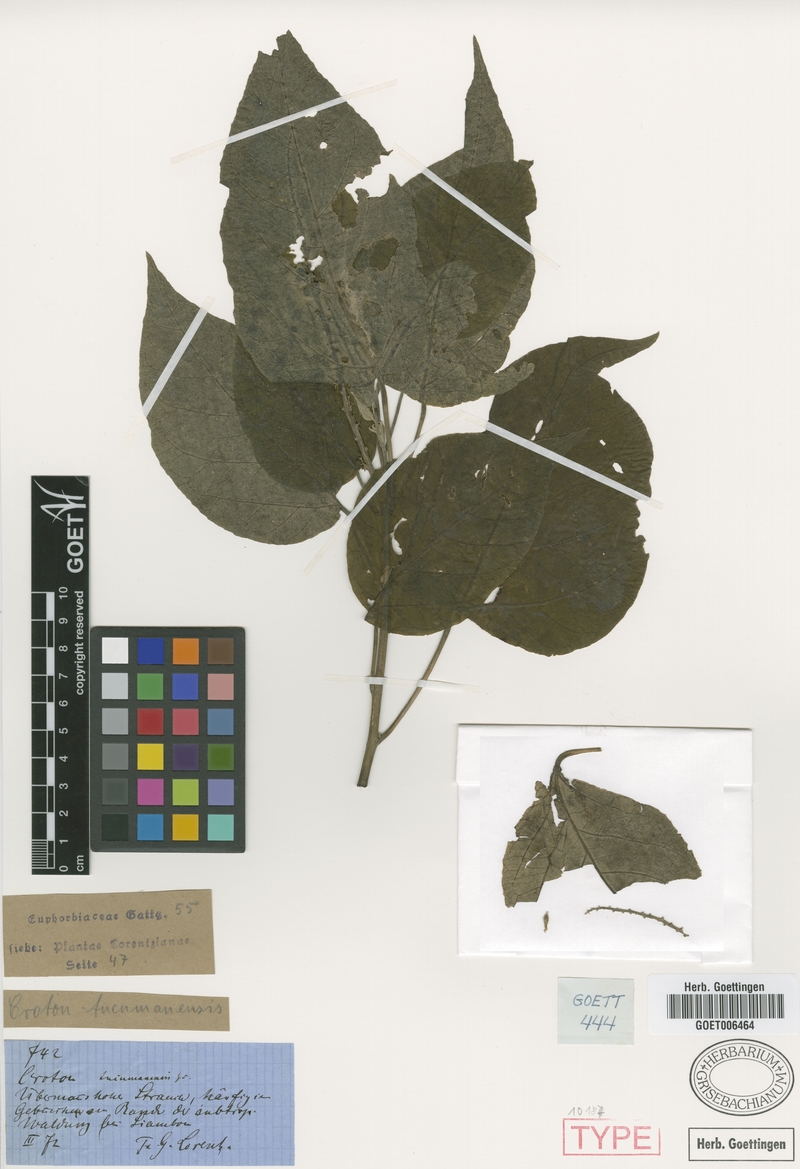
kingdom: Plantae
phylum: Tracheophyta
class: Magnoliopsida
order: Malpighiales
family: Euphorbiaceae
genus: Croton
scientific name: Croton lachnostachyus
